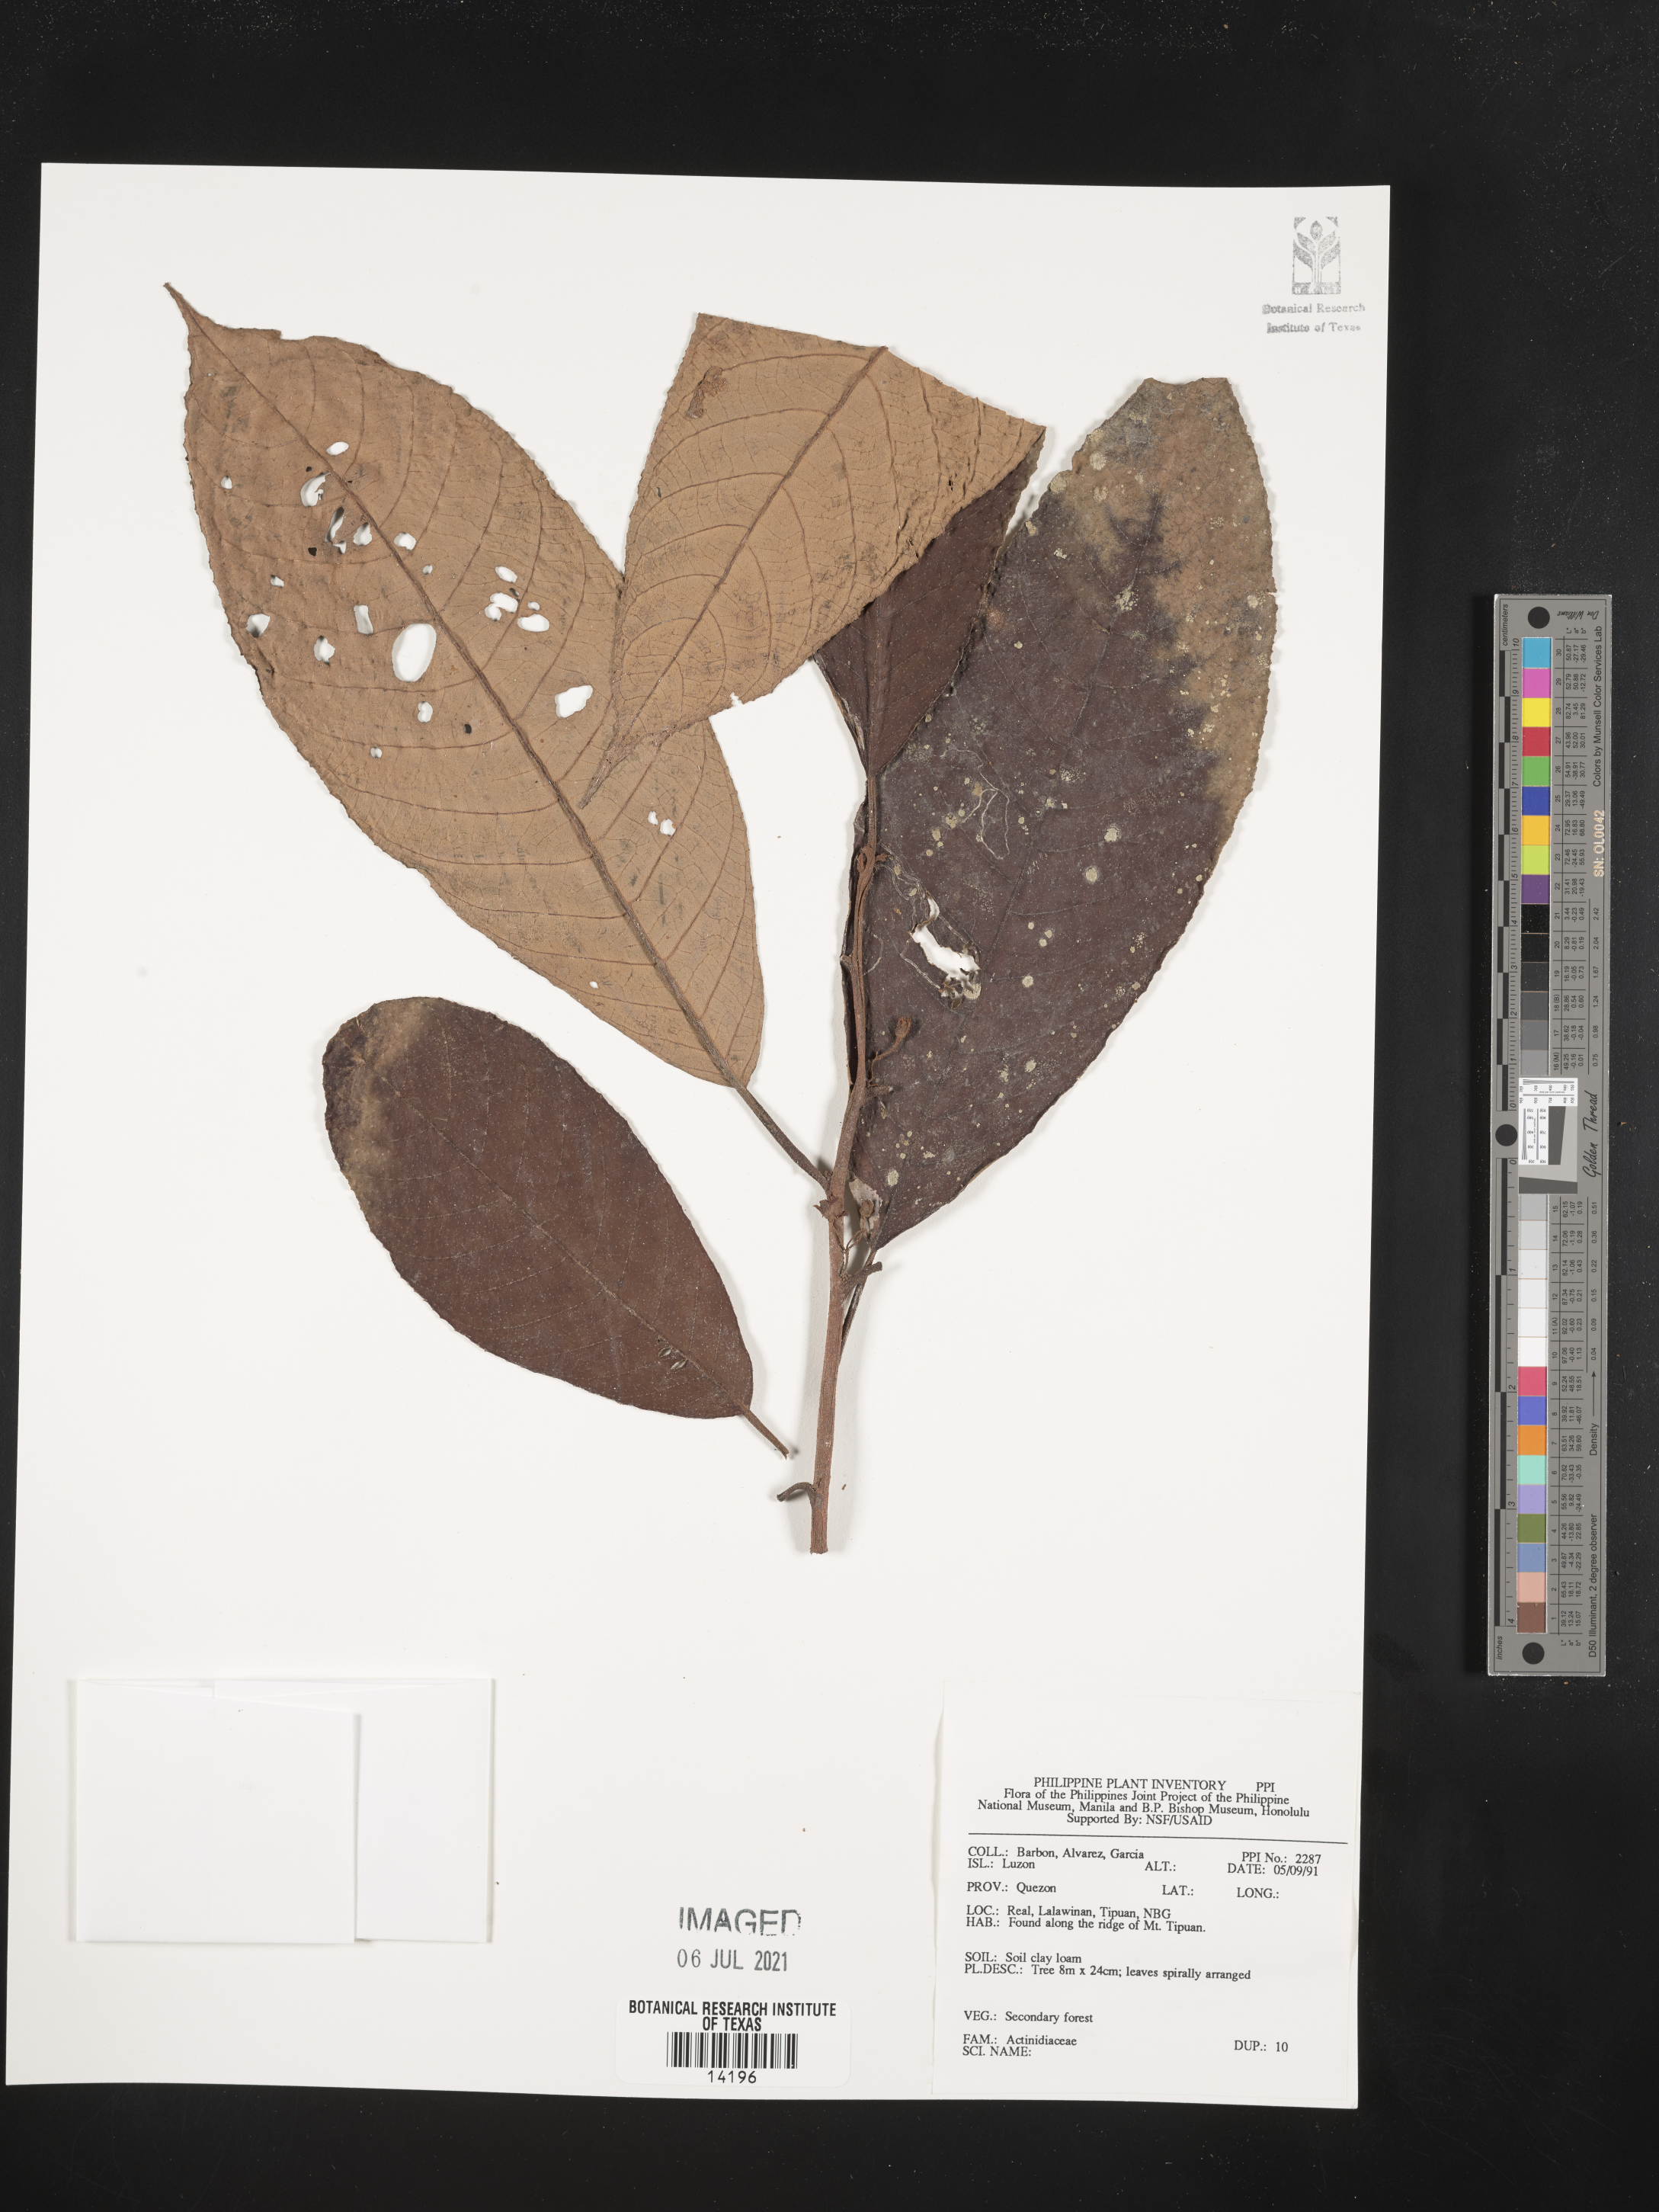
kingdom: Plantae
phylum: Tracheophyta
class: Magnoliopsida
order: Ericales
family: Actinidiaceae
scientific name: Actinidiaceae
